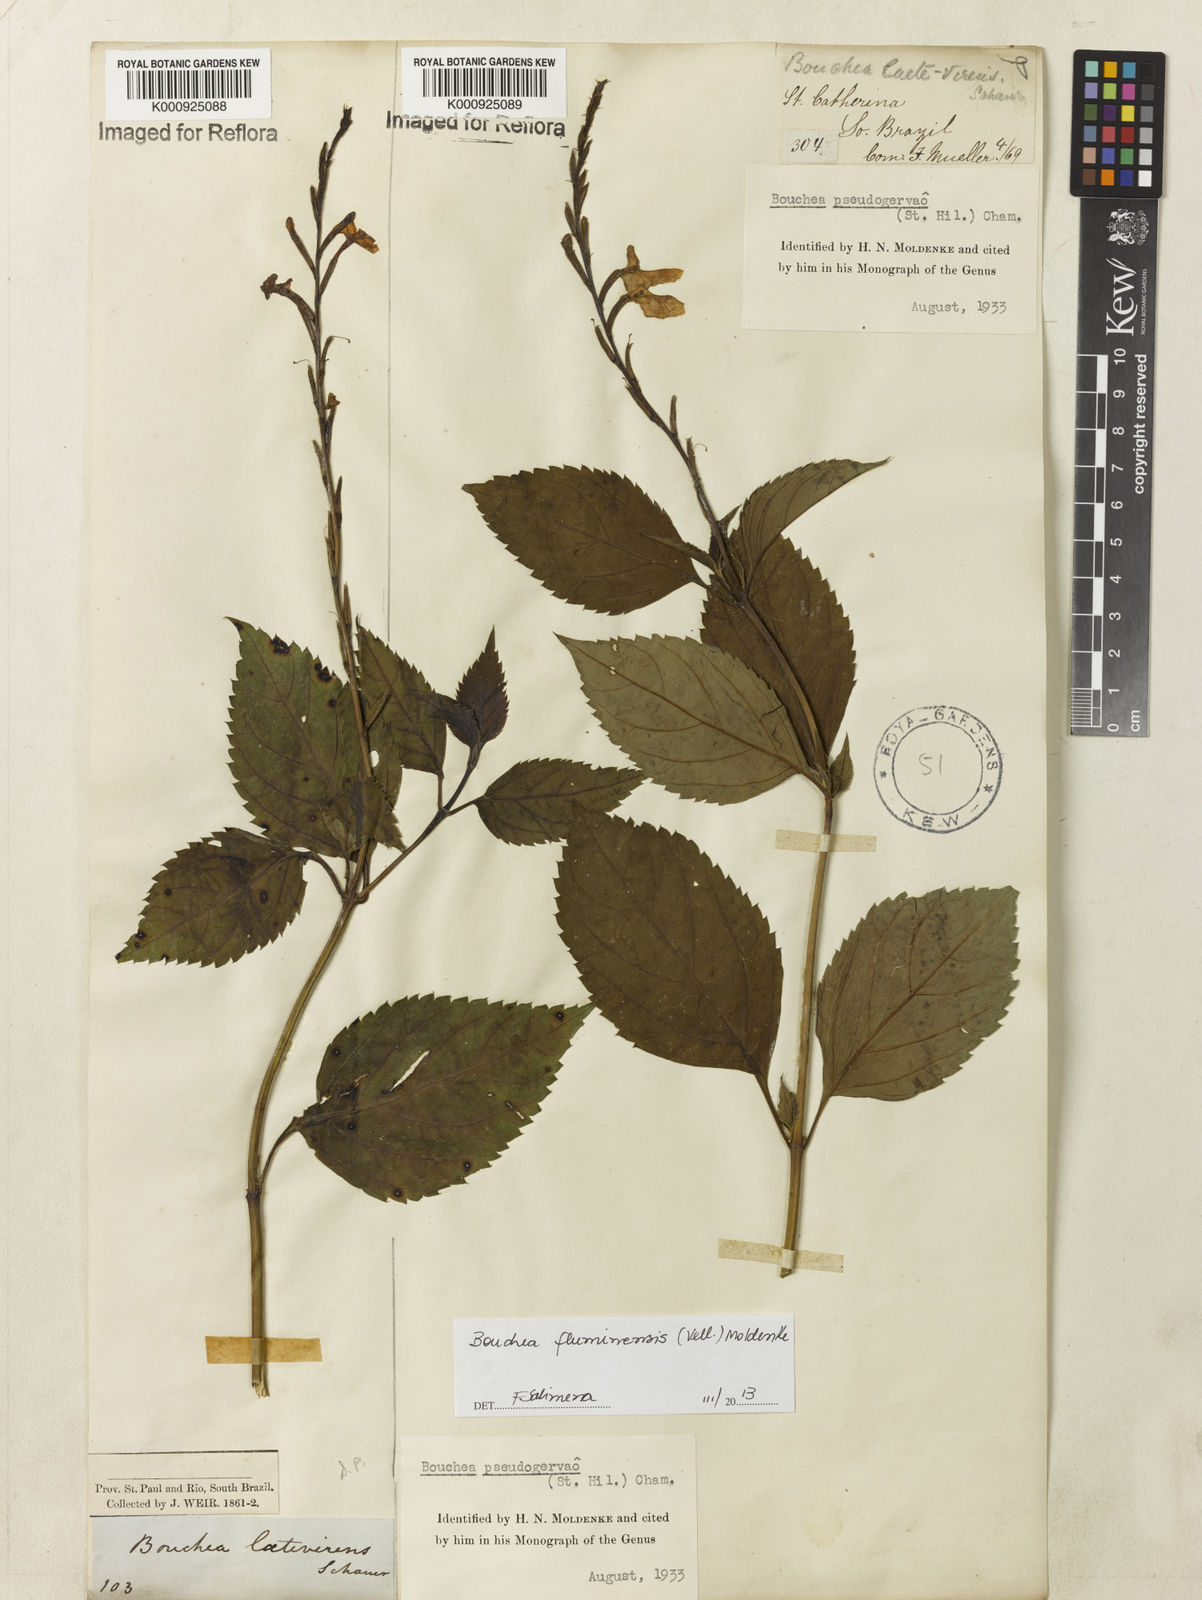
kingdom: Plantae
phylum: Tracheophyta
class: Magnoliopsida
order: Lamiales
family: Verbenaceae
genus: Bouchea
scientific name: Bouchea pseudogervao
